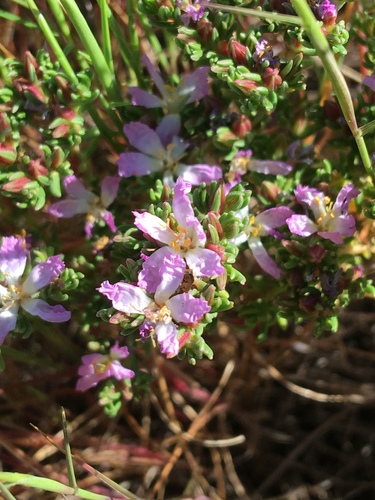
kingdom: Plantae
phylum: Tracheophyta
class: Magnoliopsida
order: Caryophyllales
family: Frankeniaceae
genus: Frankenia
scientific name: Frankenia laevis
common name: Sea-heath
